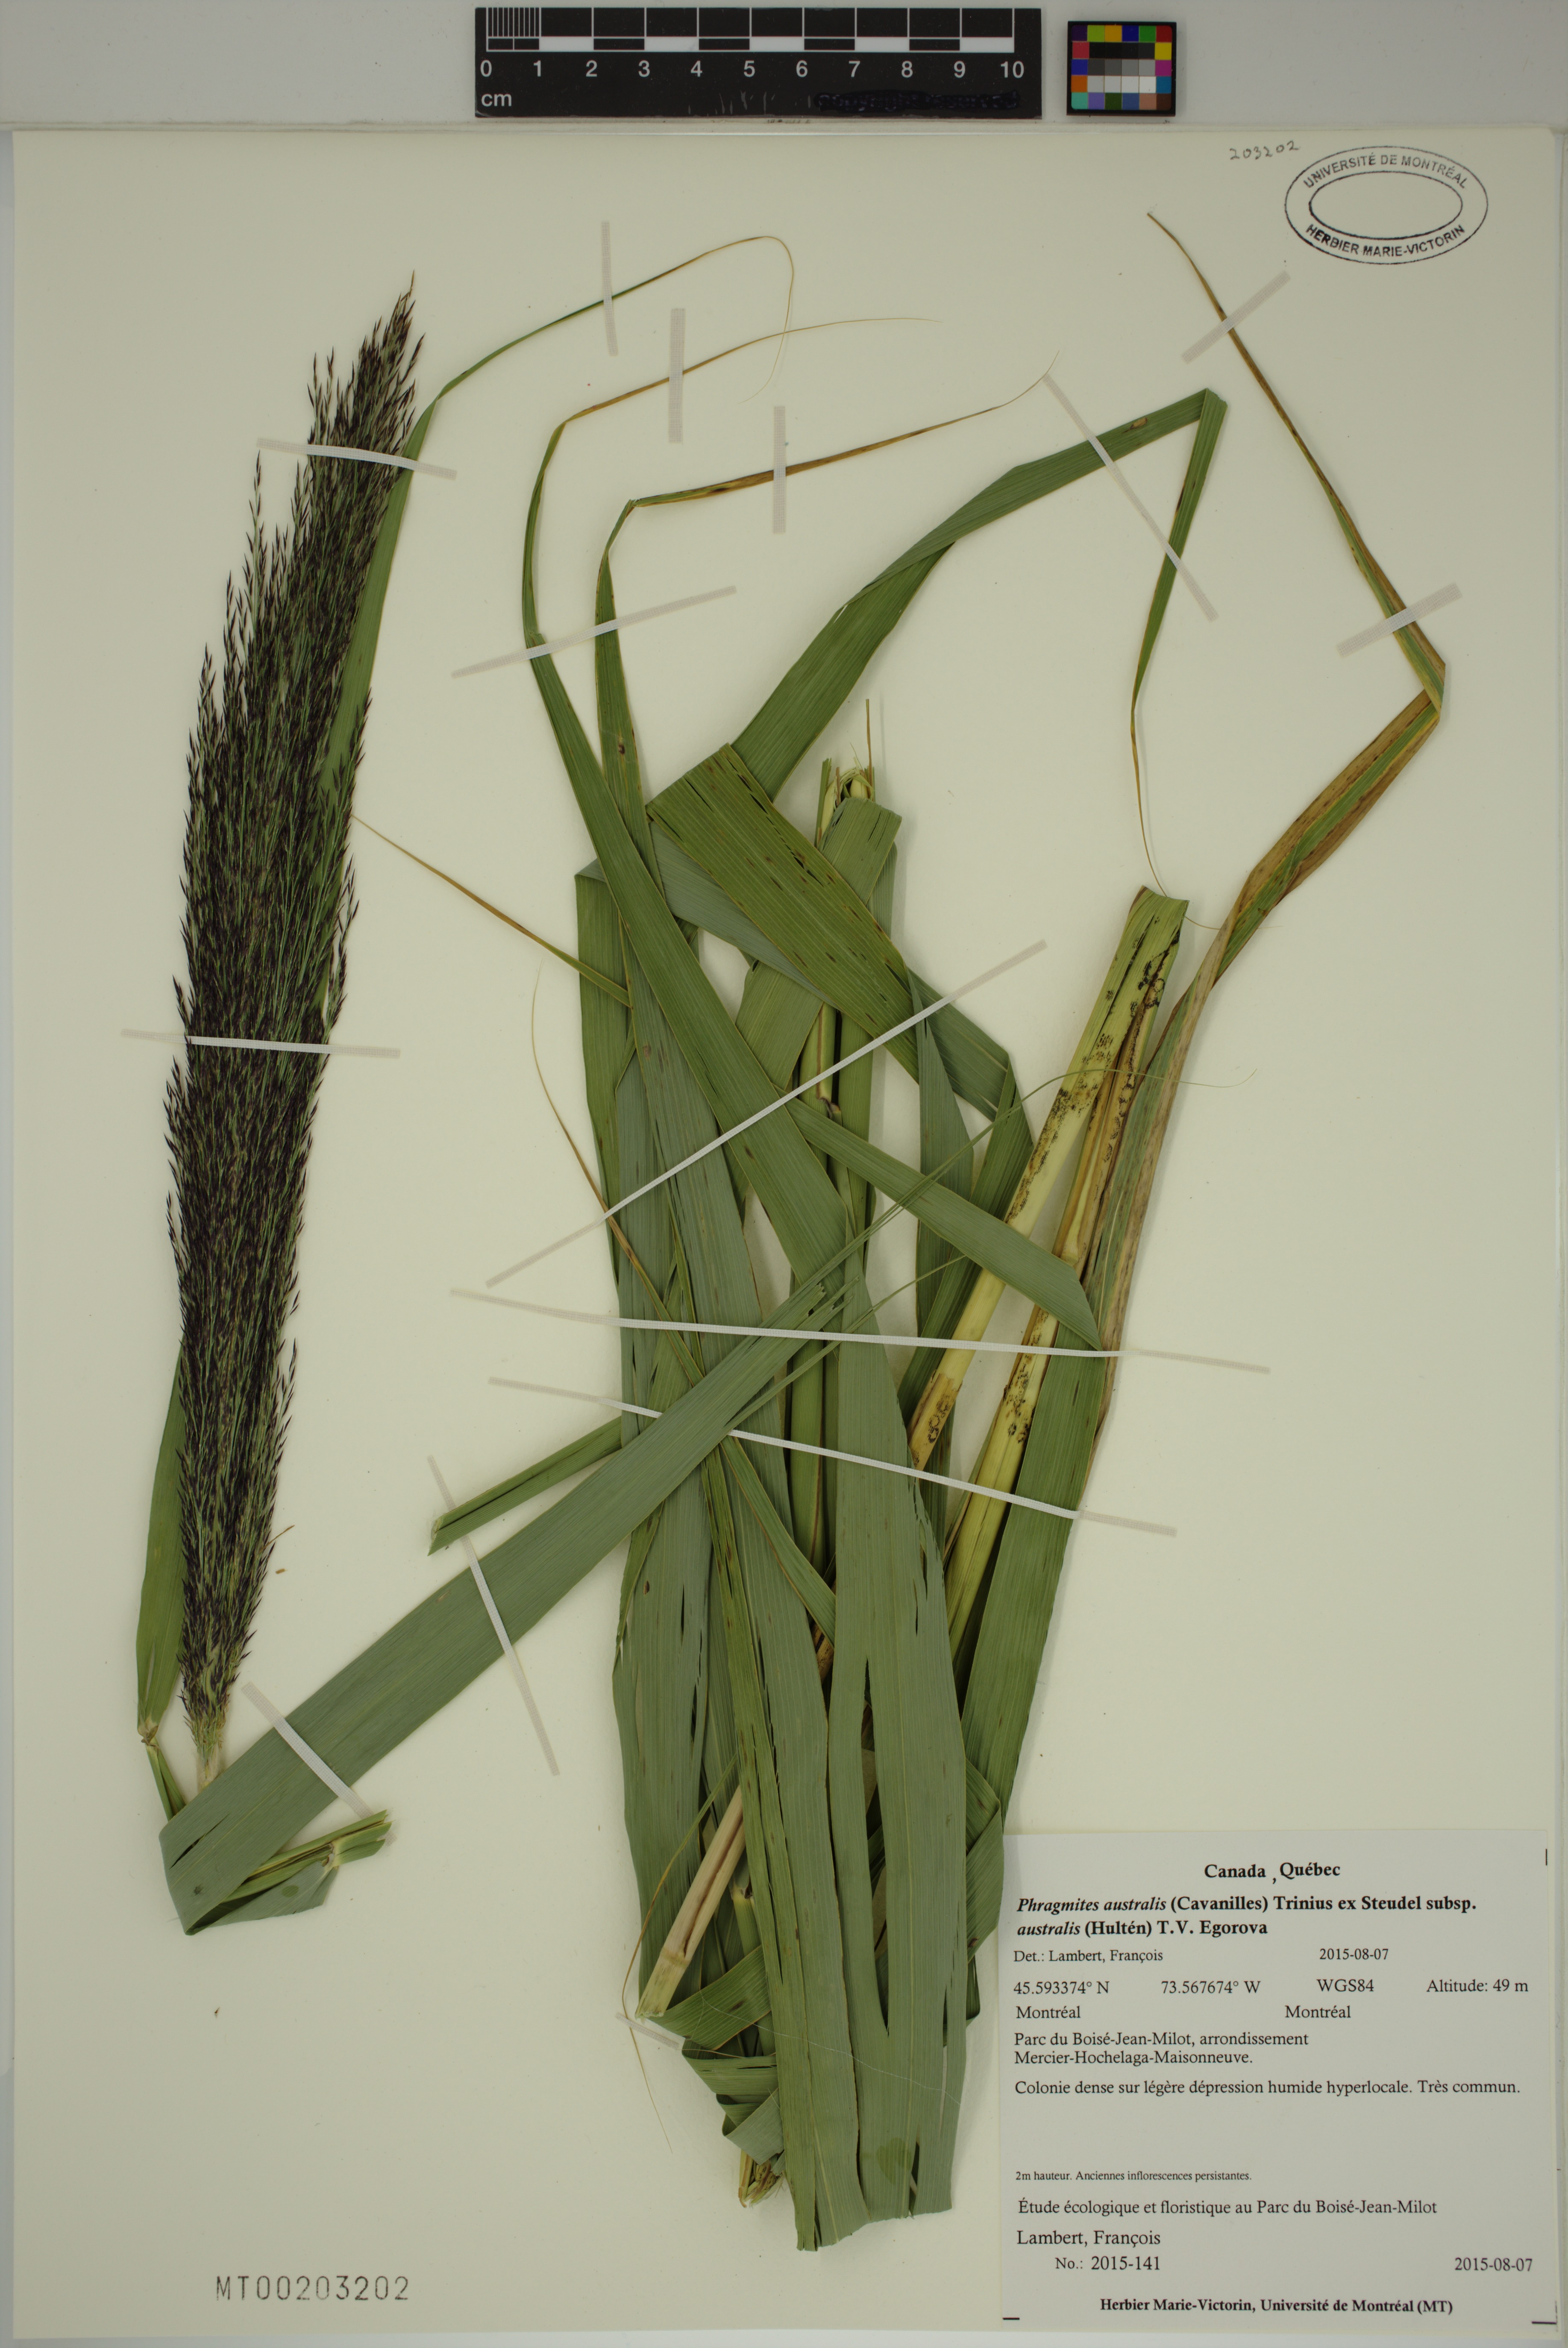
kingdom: Plantae
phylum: Tracheophyta
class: Liliopsida
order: Poales
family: Poaceae
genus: Phragmites
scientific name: Phragmites australis
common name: Common reed
